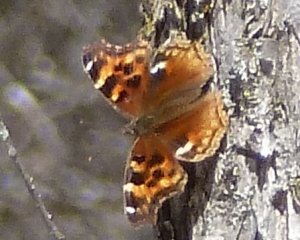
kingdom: Animalia
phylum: Arthropoda
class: Insecta
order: Lepidoptera
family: Nymphalidae
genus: Polygonia
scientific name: Polygonia vaualbum
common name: Compton Tortoiseshell
